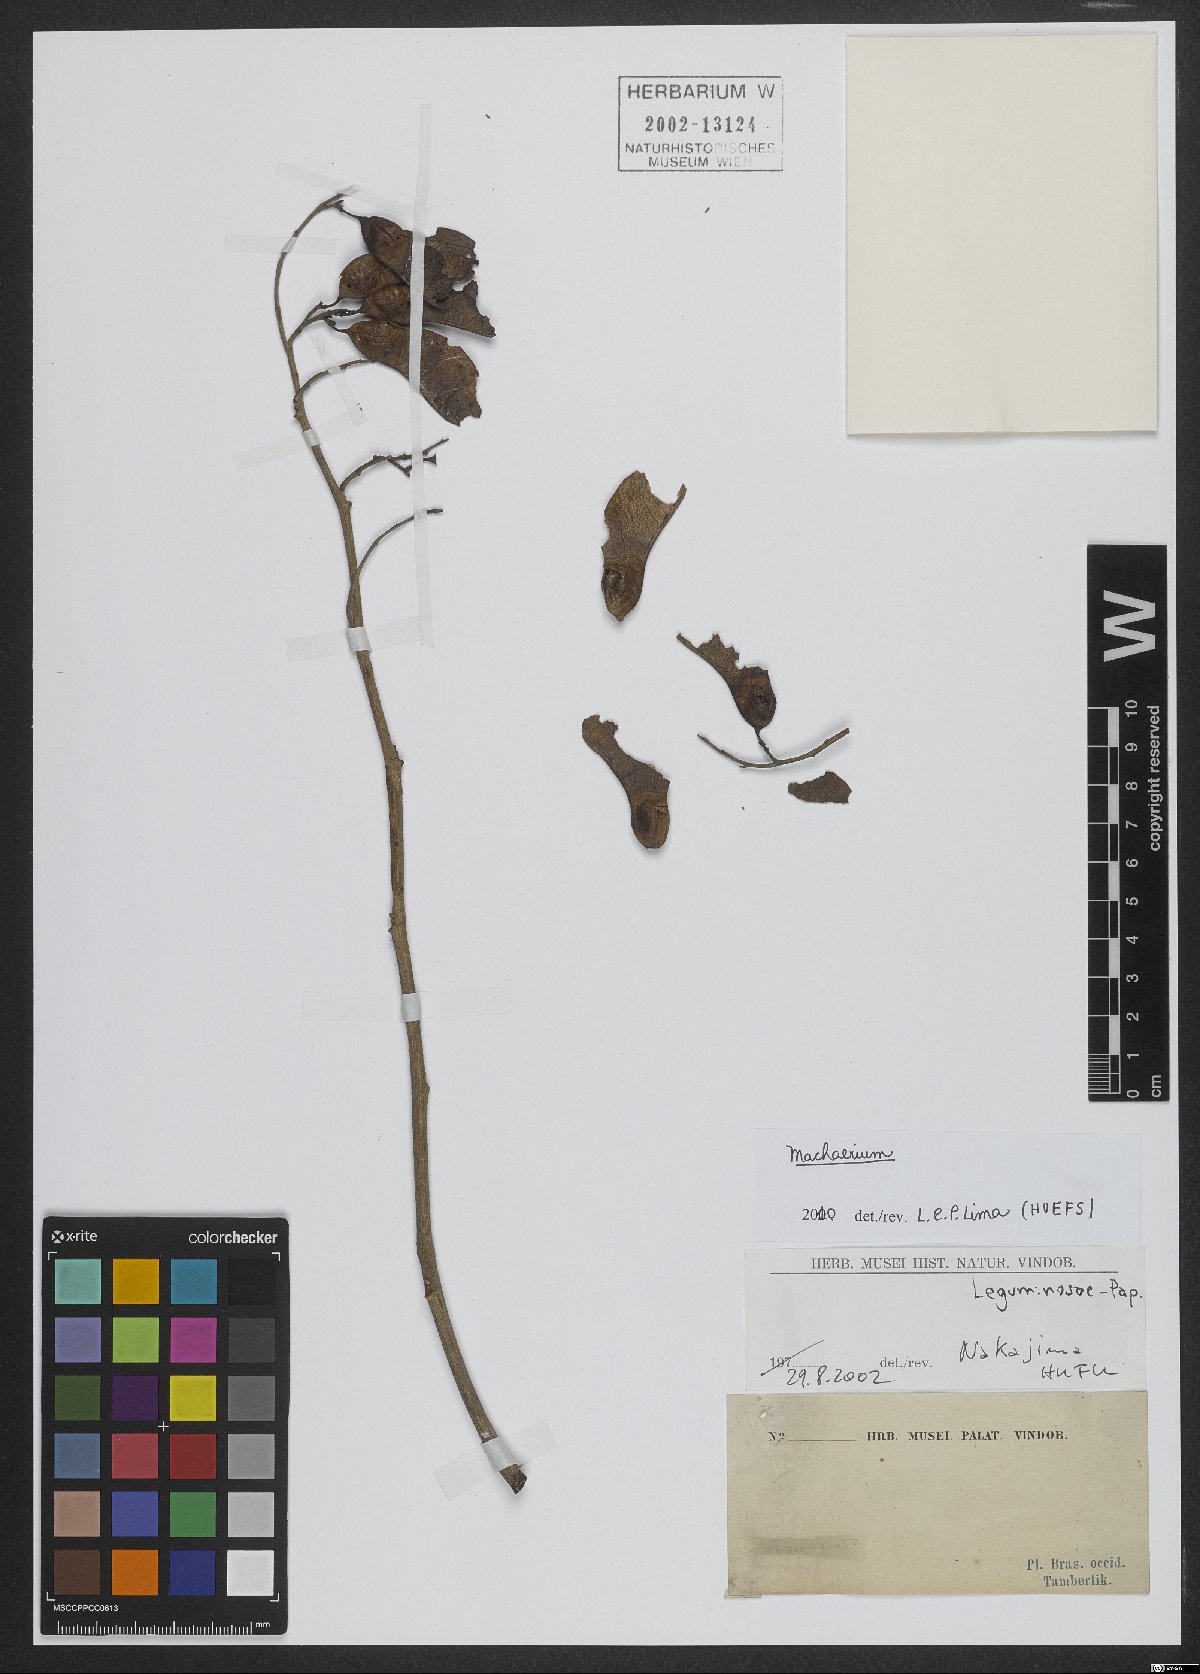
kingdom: Plantae
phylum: Tracheophyta
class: Magnoliopsida
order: Fabales
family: Fabaceae
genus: Machaerium
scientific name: Machaerium
